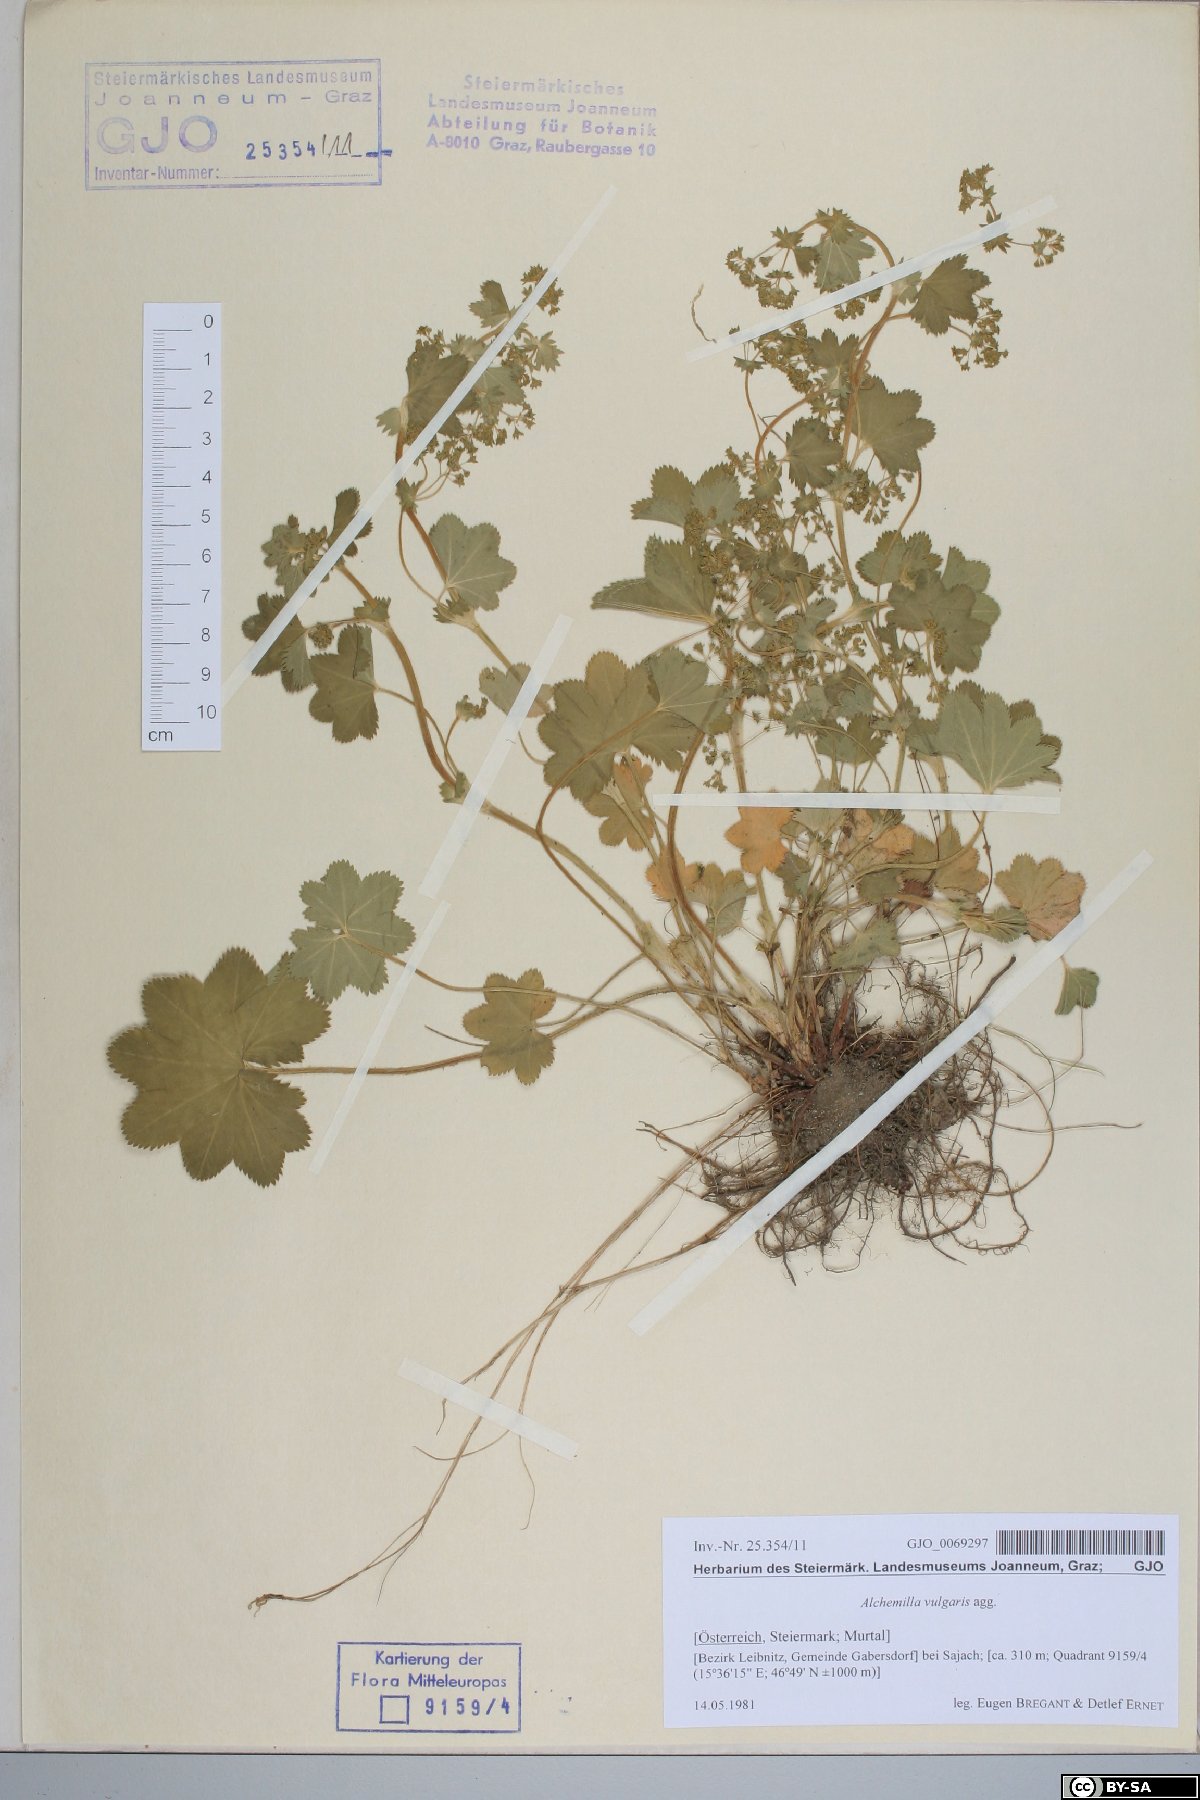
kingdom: Plantae
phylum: Tracheophyta
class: Magnoliopsida
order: Rosales
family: Rosaceae
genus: Alchemilla
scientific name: Alchemilla vulgaris
